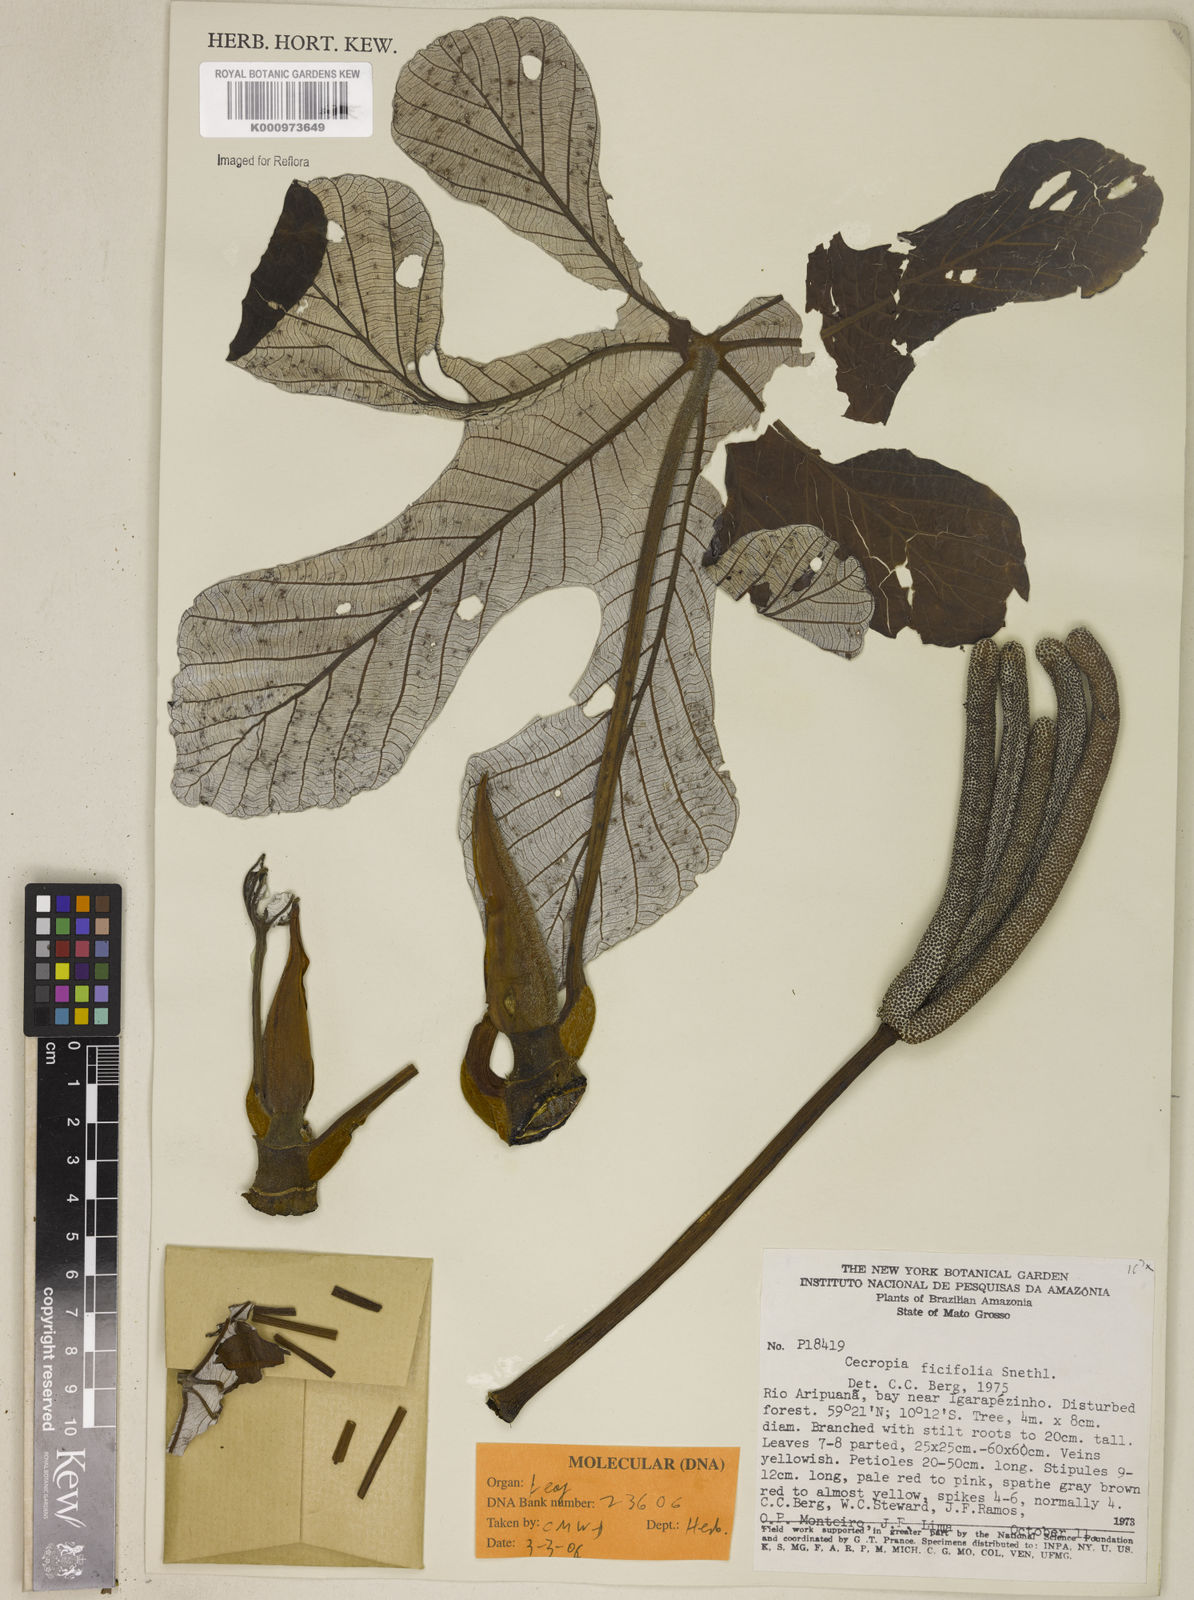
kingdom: Plantae
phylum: Tracheophyta
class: Magnoliopsida
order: Rosales
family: Urticaceae
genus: Cecropia
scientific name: Cecropia ficifolia
